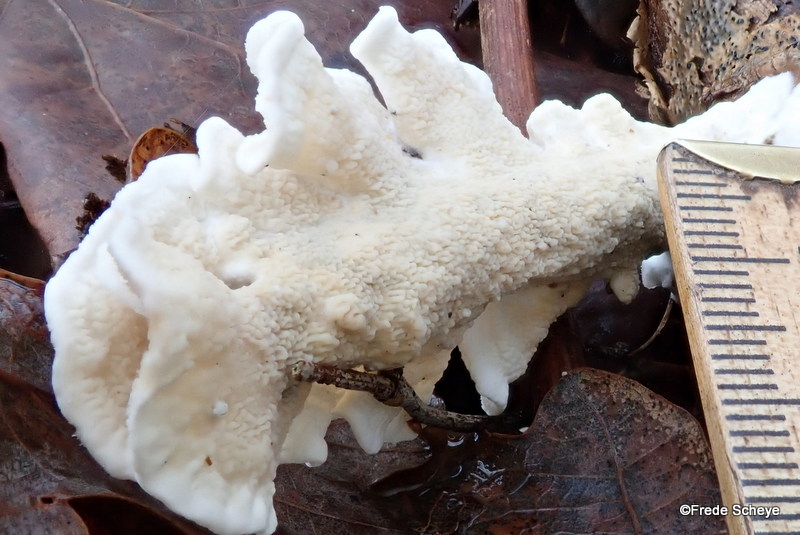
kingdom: Fungi
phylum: Basidiomycota
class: Agaricomycetes
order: Polyporales
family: Irpicaceae
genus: Byssomerulius
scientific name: Byssomerulius corium
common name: læder-åresvamp
